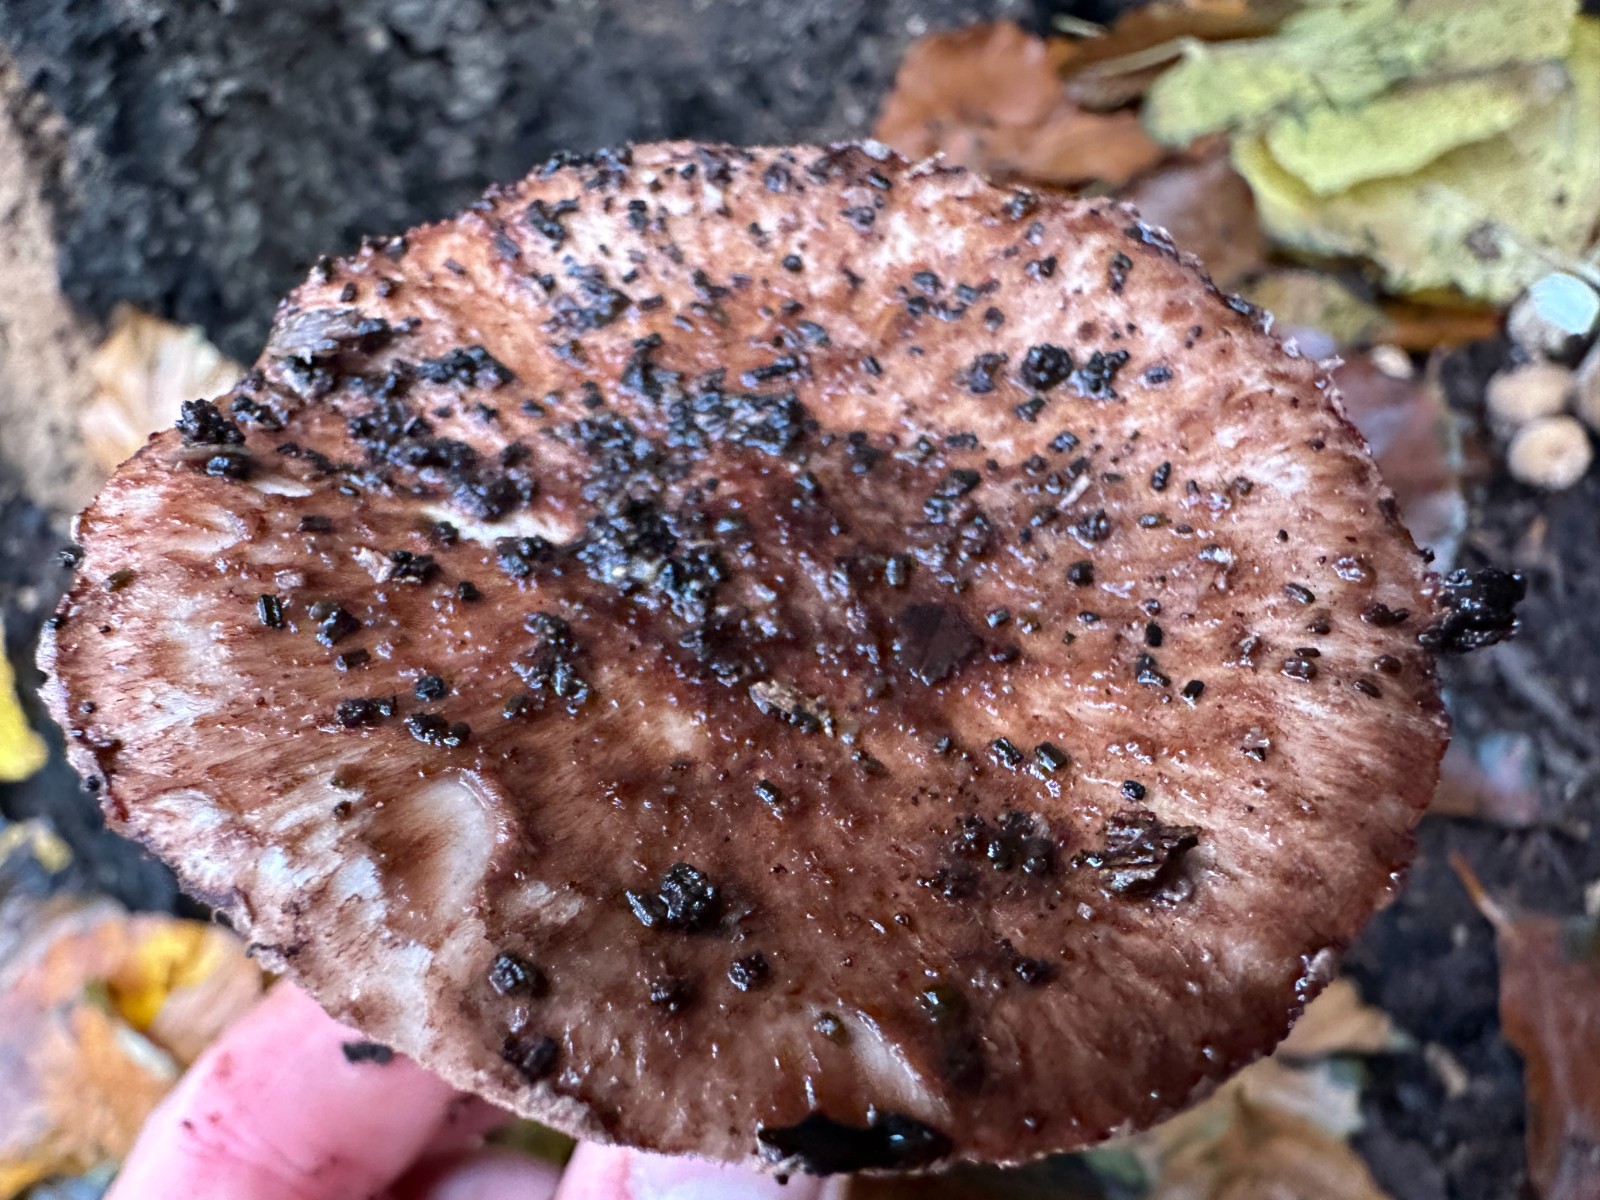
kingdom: Fungi
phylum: Basidiomycota
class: Agaricomycetes
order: Agaricales
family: Agaricaceae
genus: Agaricus
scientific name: Agaricus
